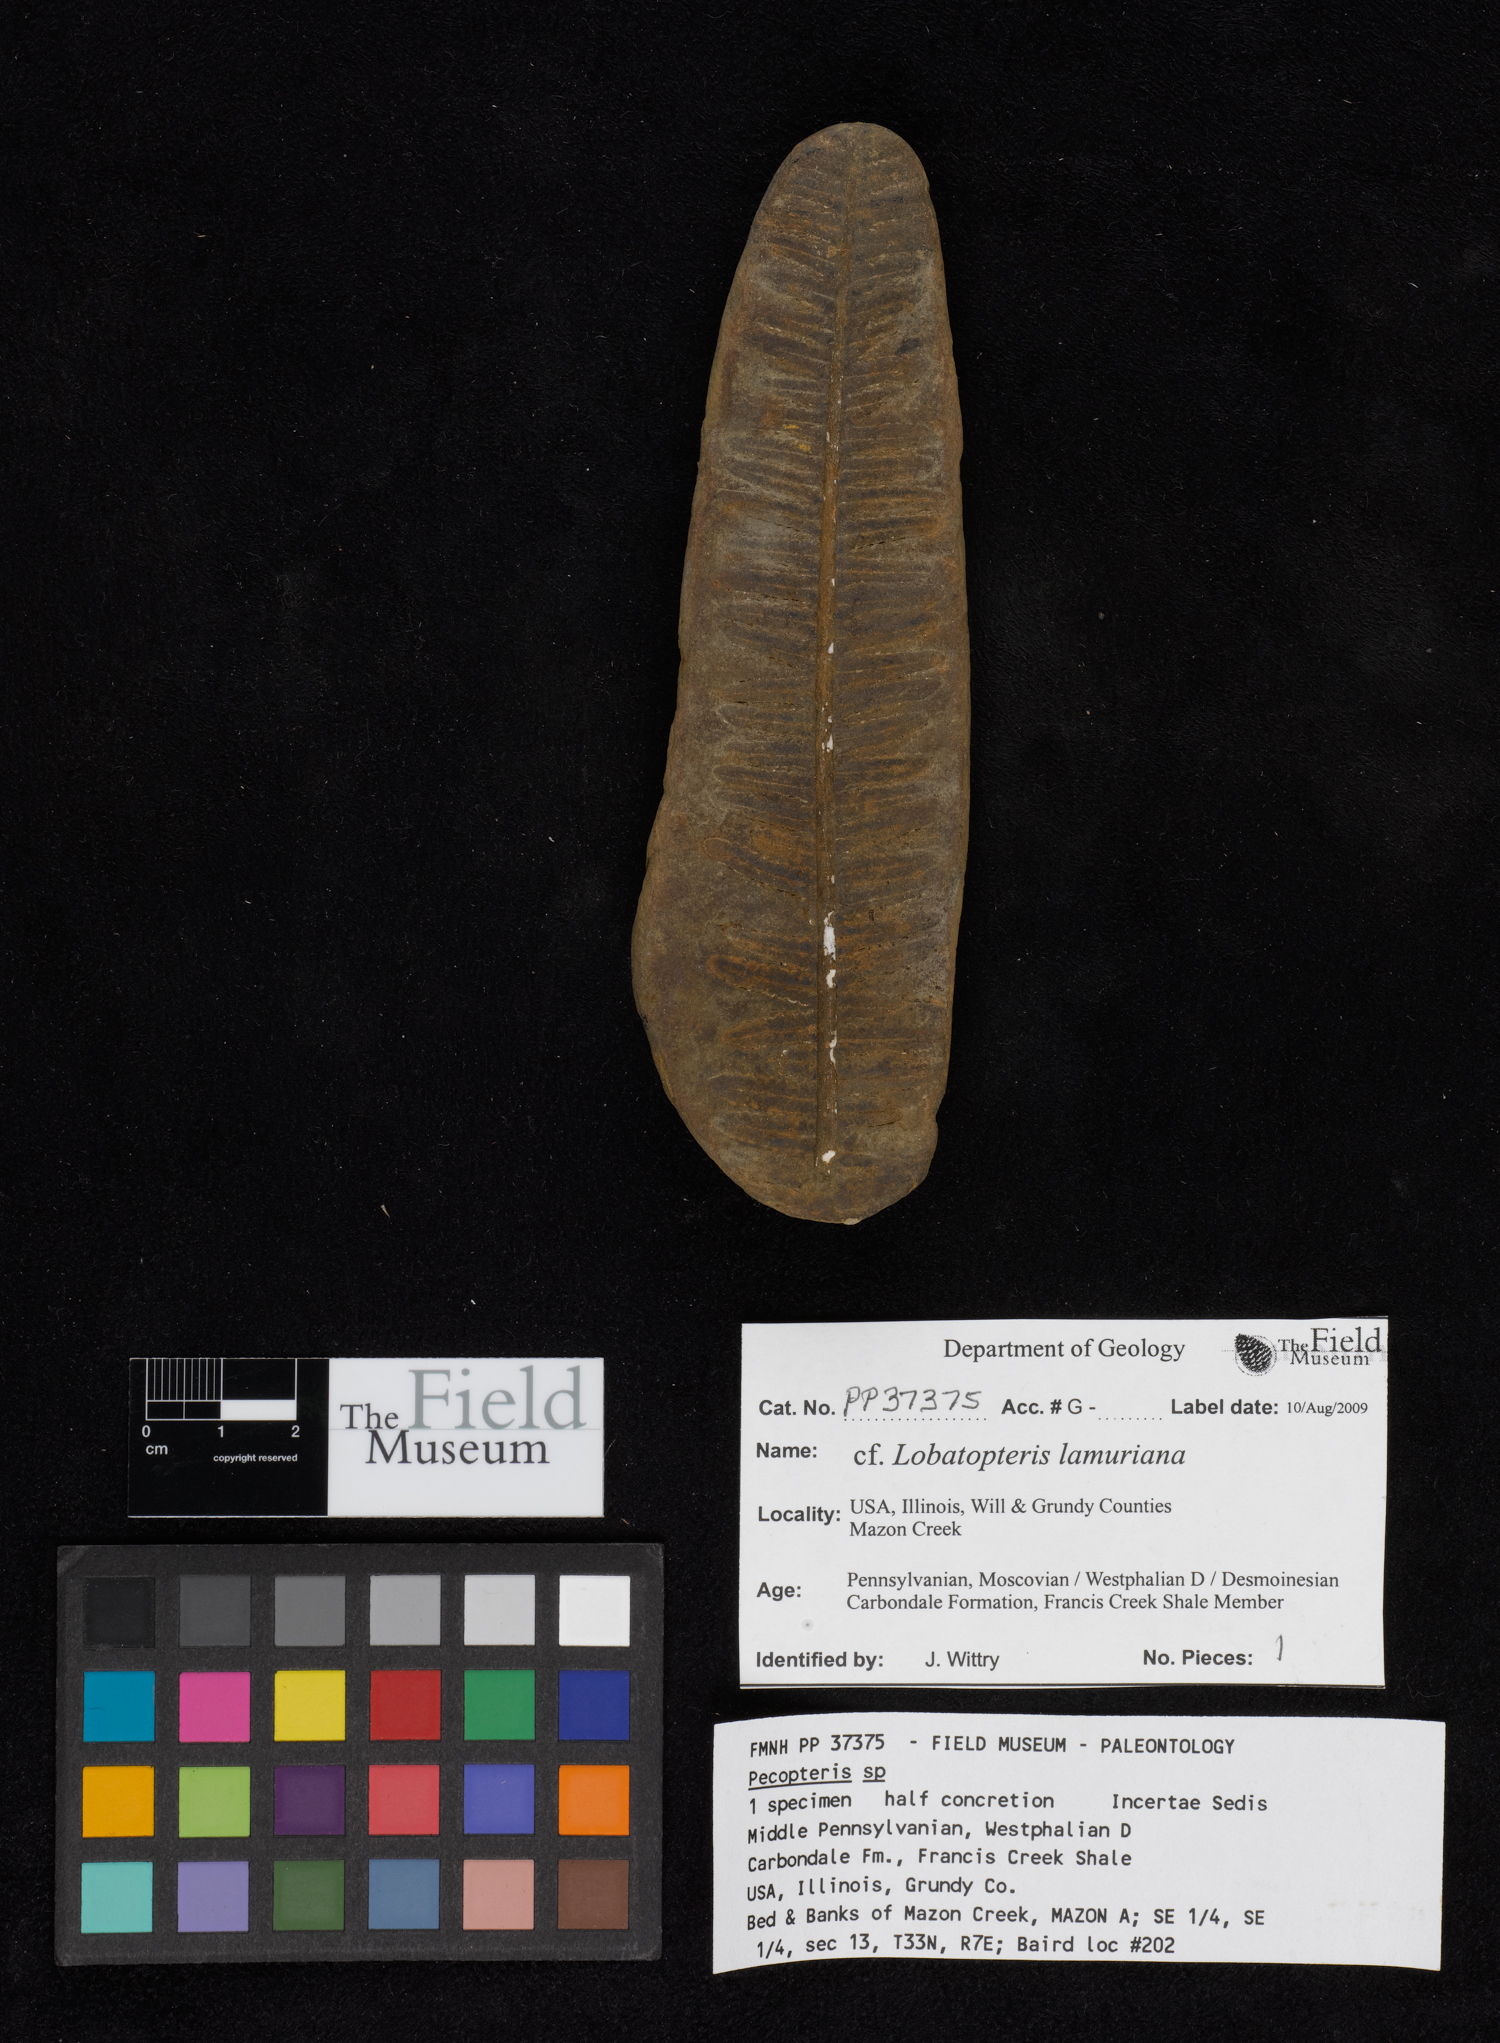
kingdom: Plantae
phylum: Tracheophyta
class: Polypodiopsida
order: Marattiales
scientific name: Marattiales
